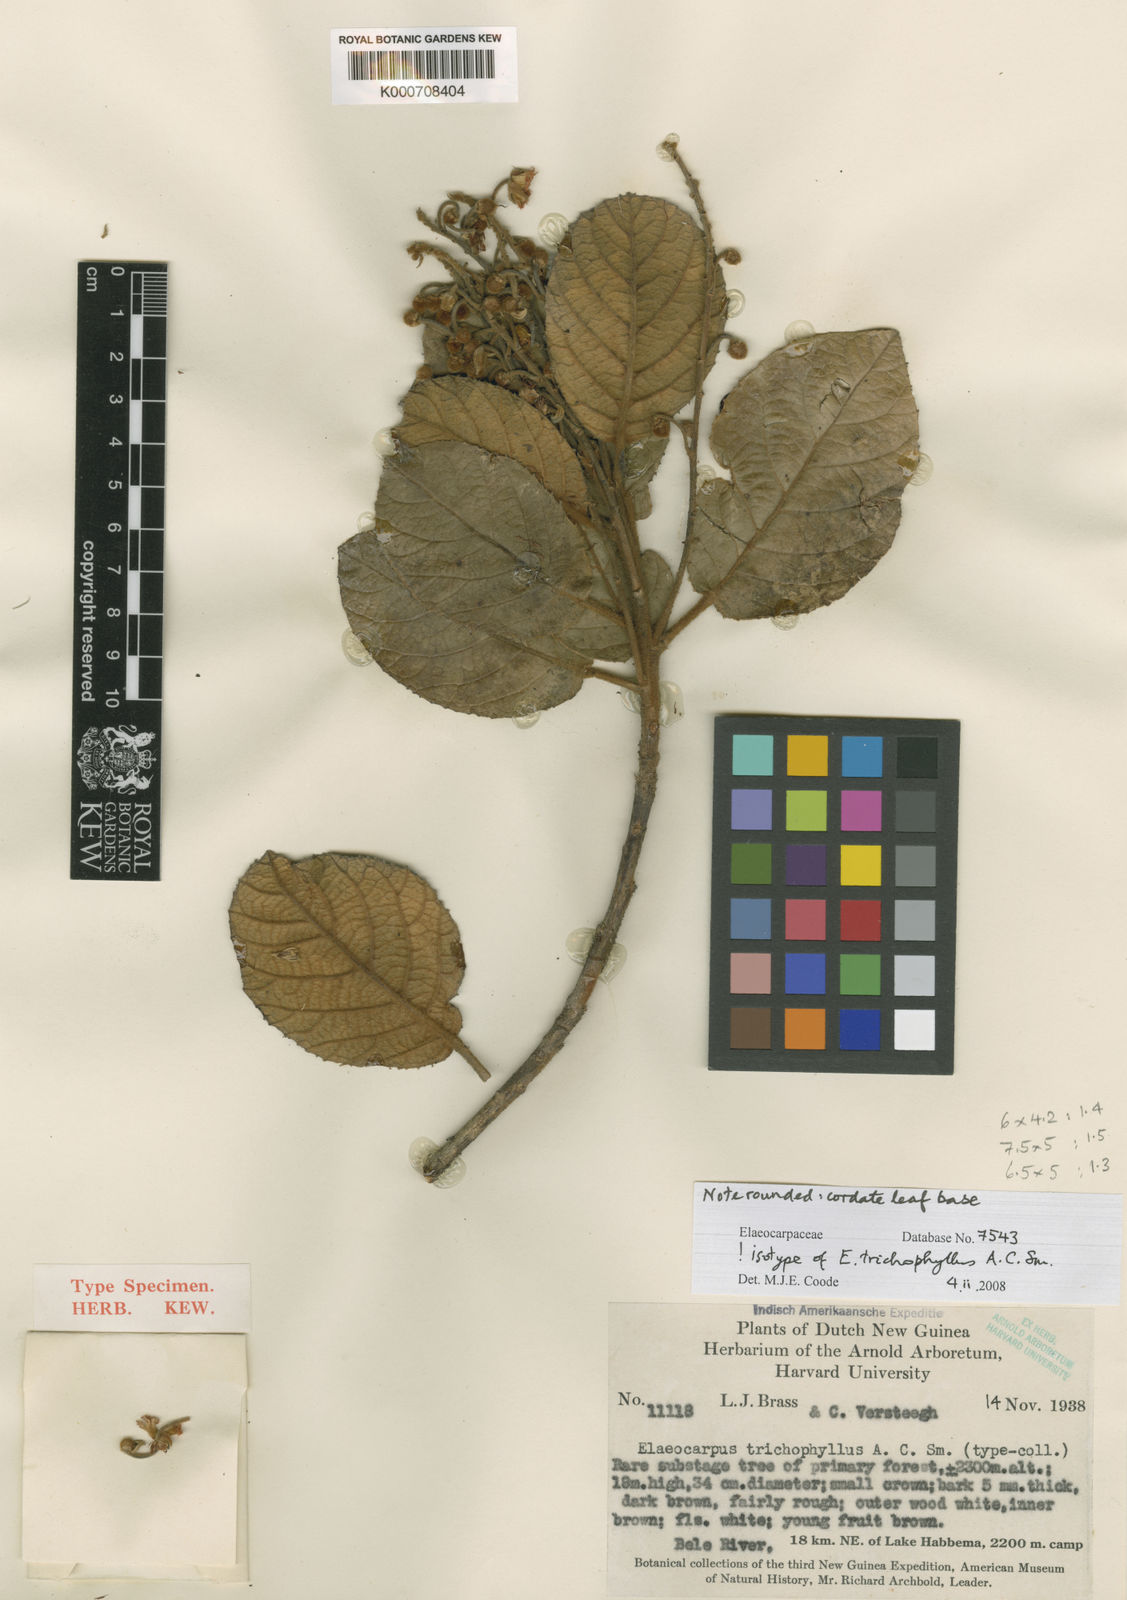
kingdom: Plantae
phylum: Tracheophyta
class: Magnoliopsida
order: Oxalidales
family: Elaeocarpaceae
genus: Elaeocarpus
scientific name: Elaeocarpus trichophyllus
